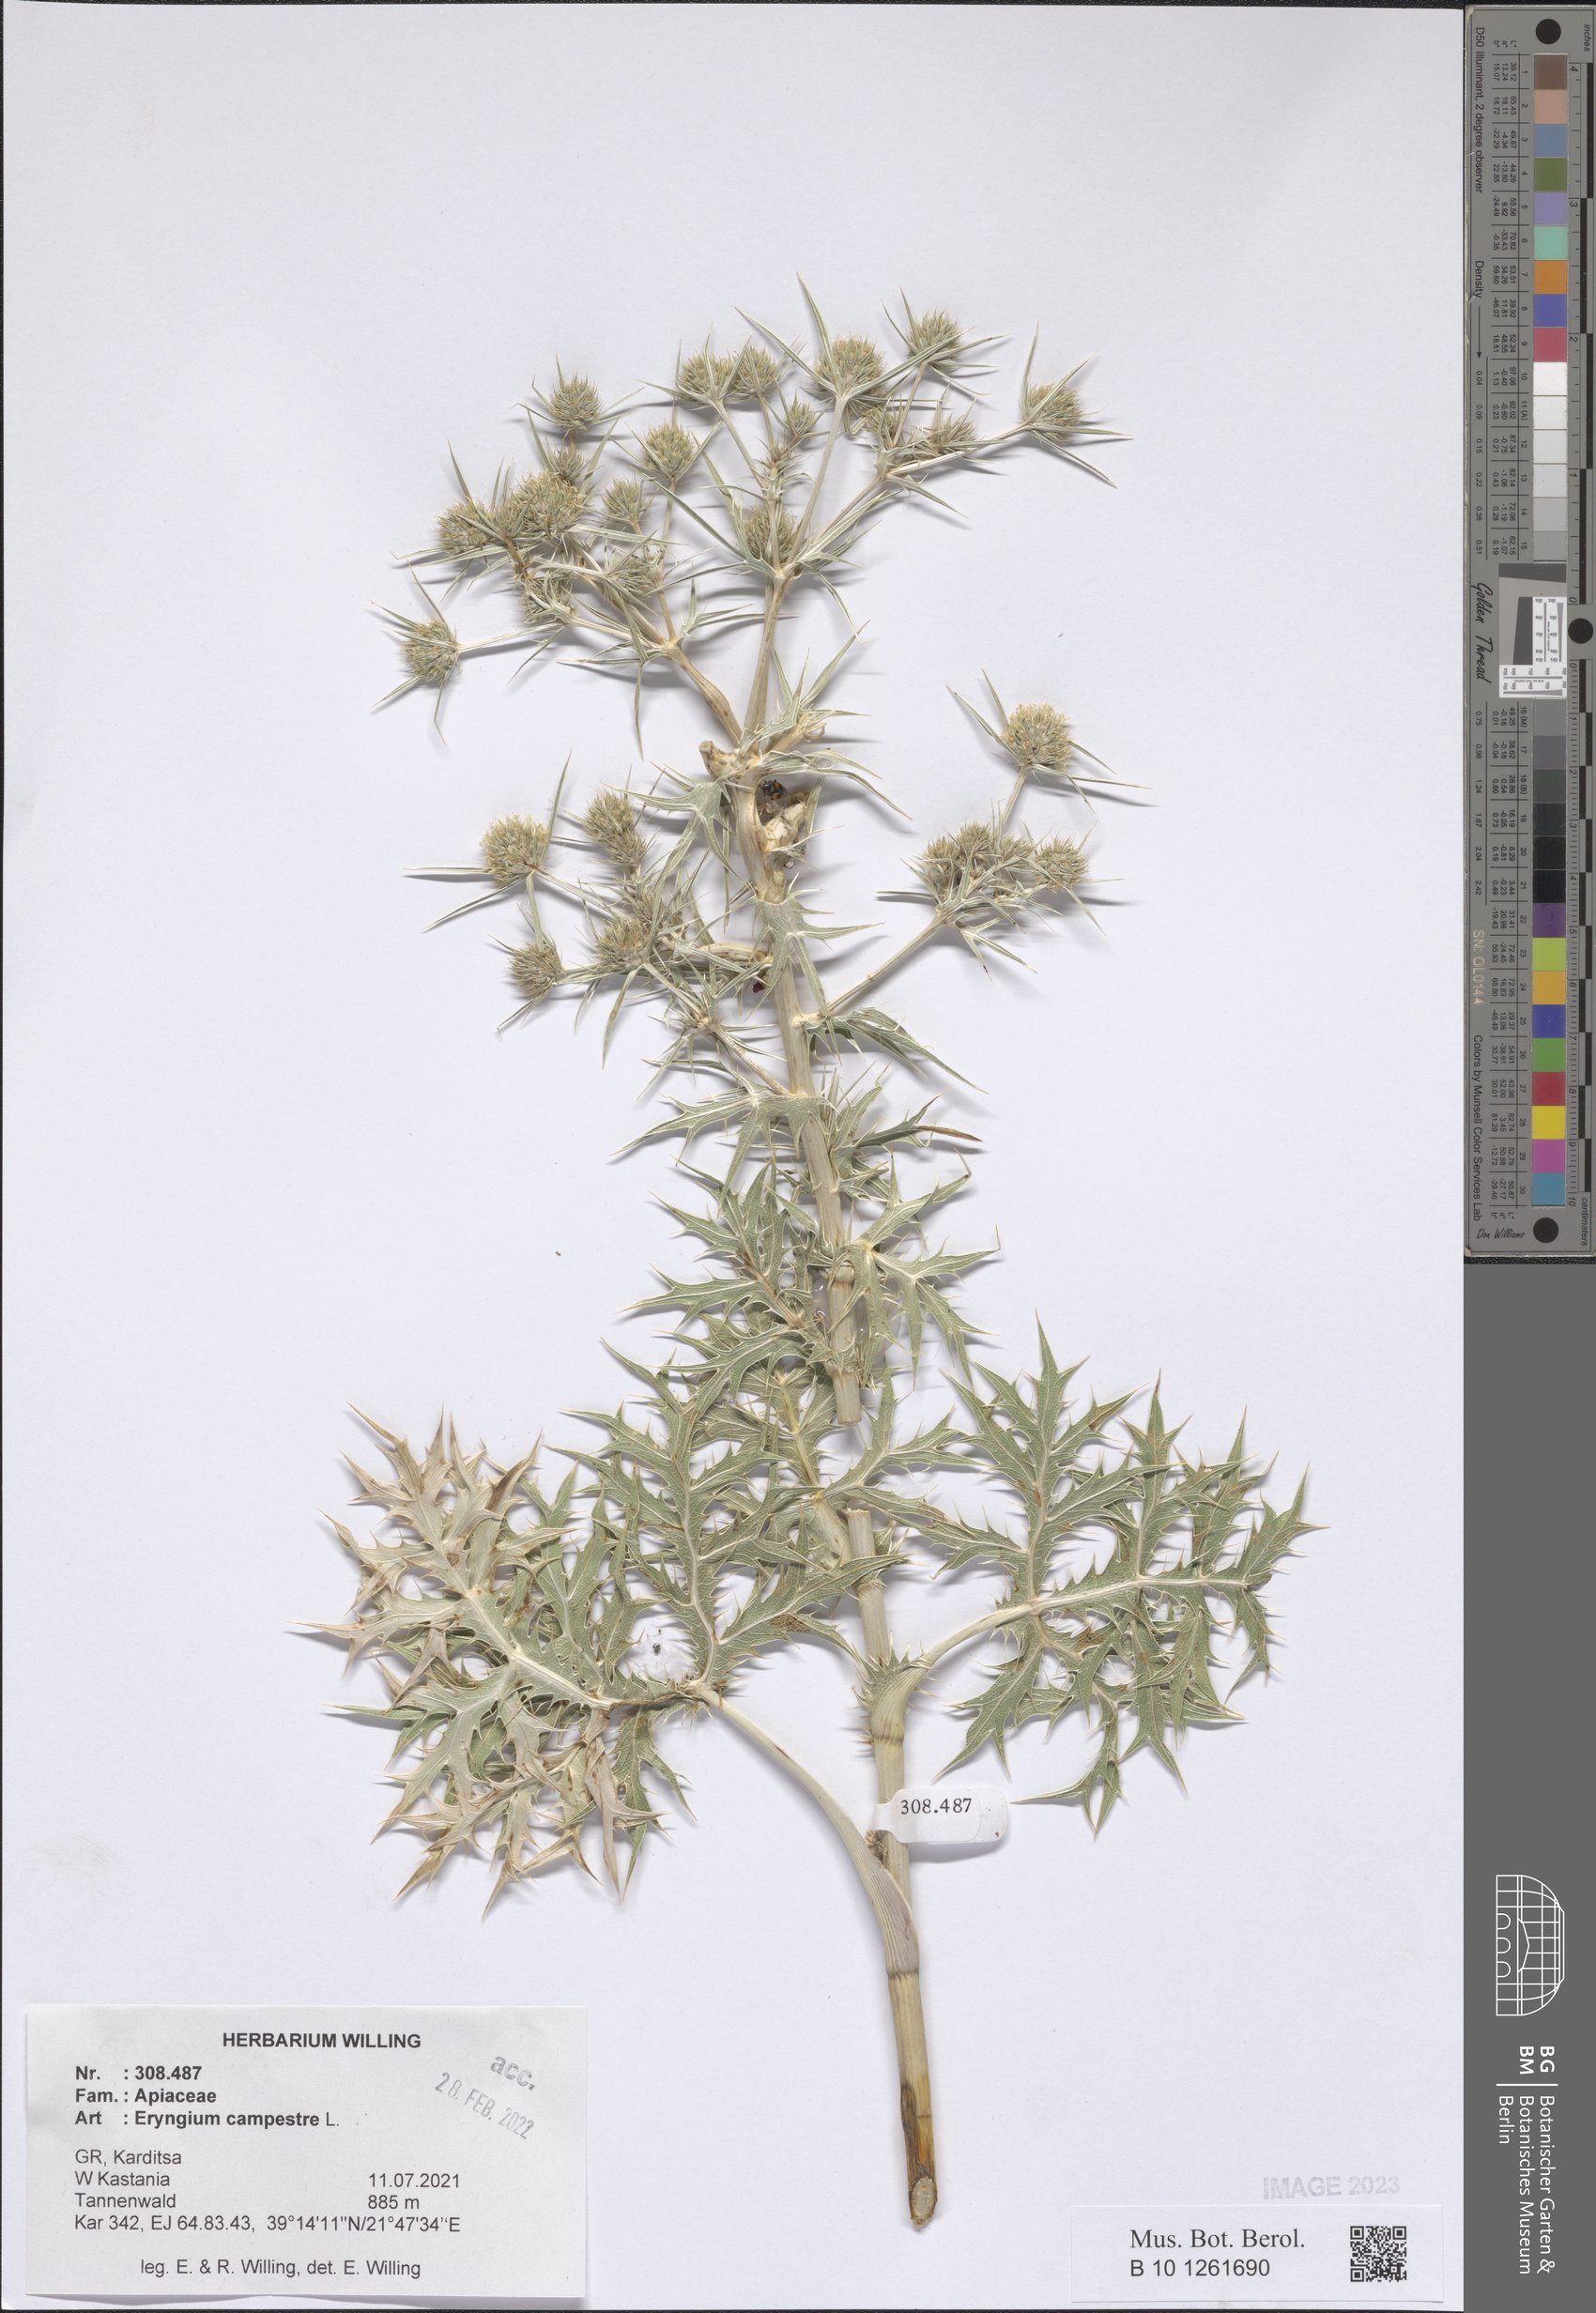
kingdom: Plantae
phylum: Tracheophyta
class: Magnoliopsida
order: Apiales
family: Apiaceae
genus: Eryngium
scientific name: Eryngium campestre
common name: Field eryngo
